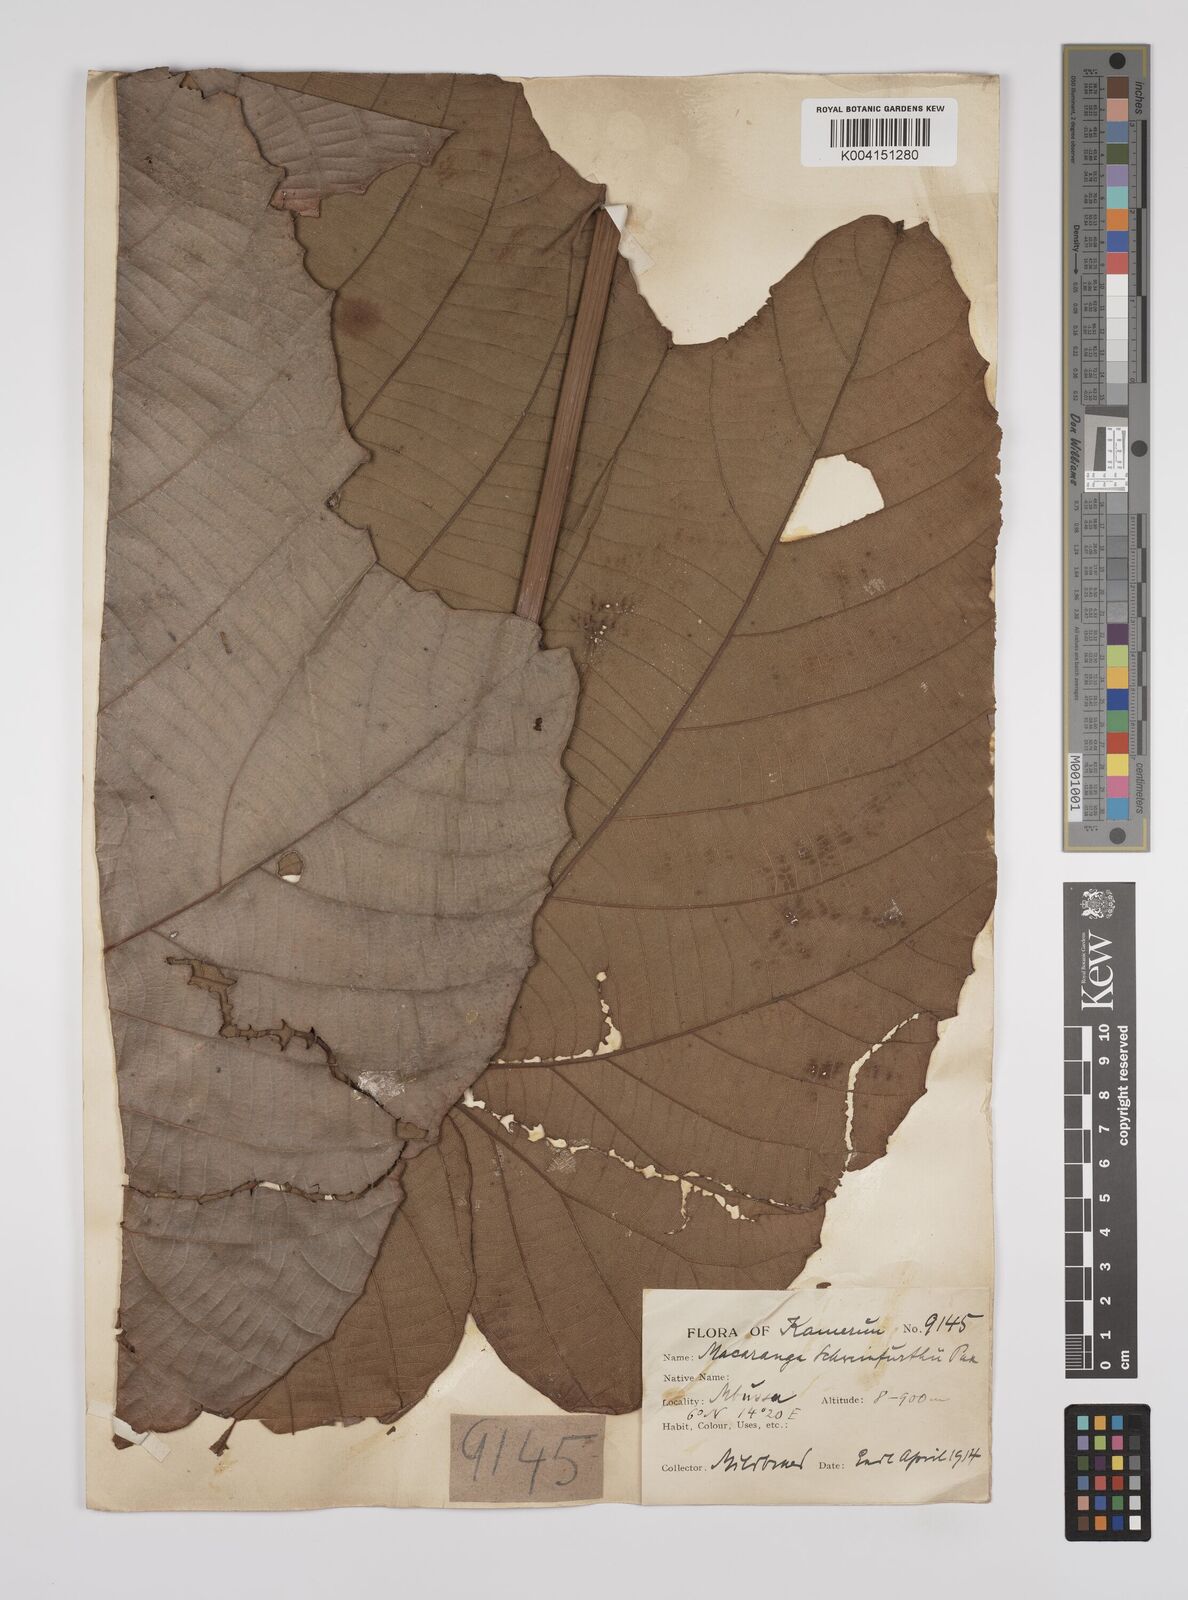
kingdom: Plantae
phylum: Tracheophyta
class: Magnoliopsida
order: Malpighiales
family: Euphorbiaceae
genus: Macaranga
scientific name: Macaranga schweinfurthii
